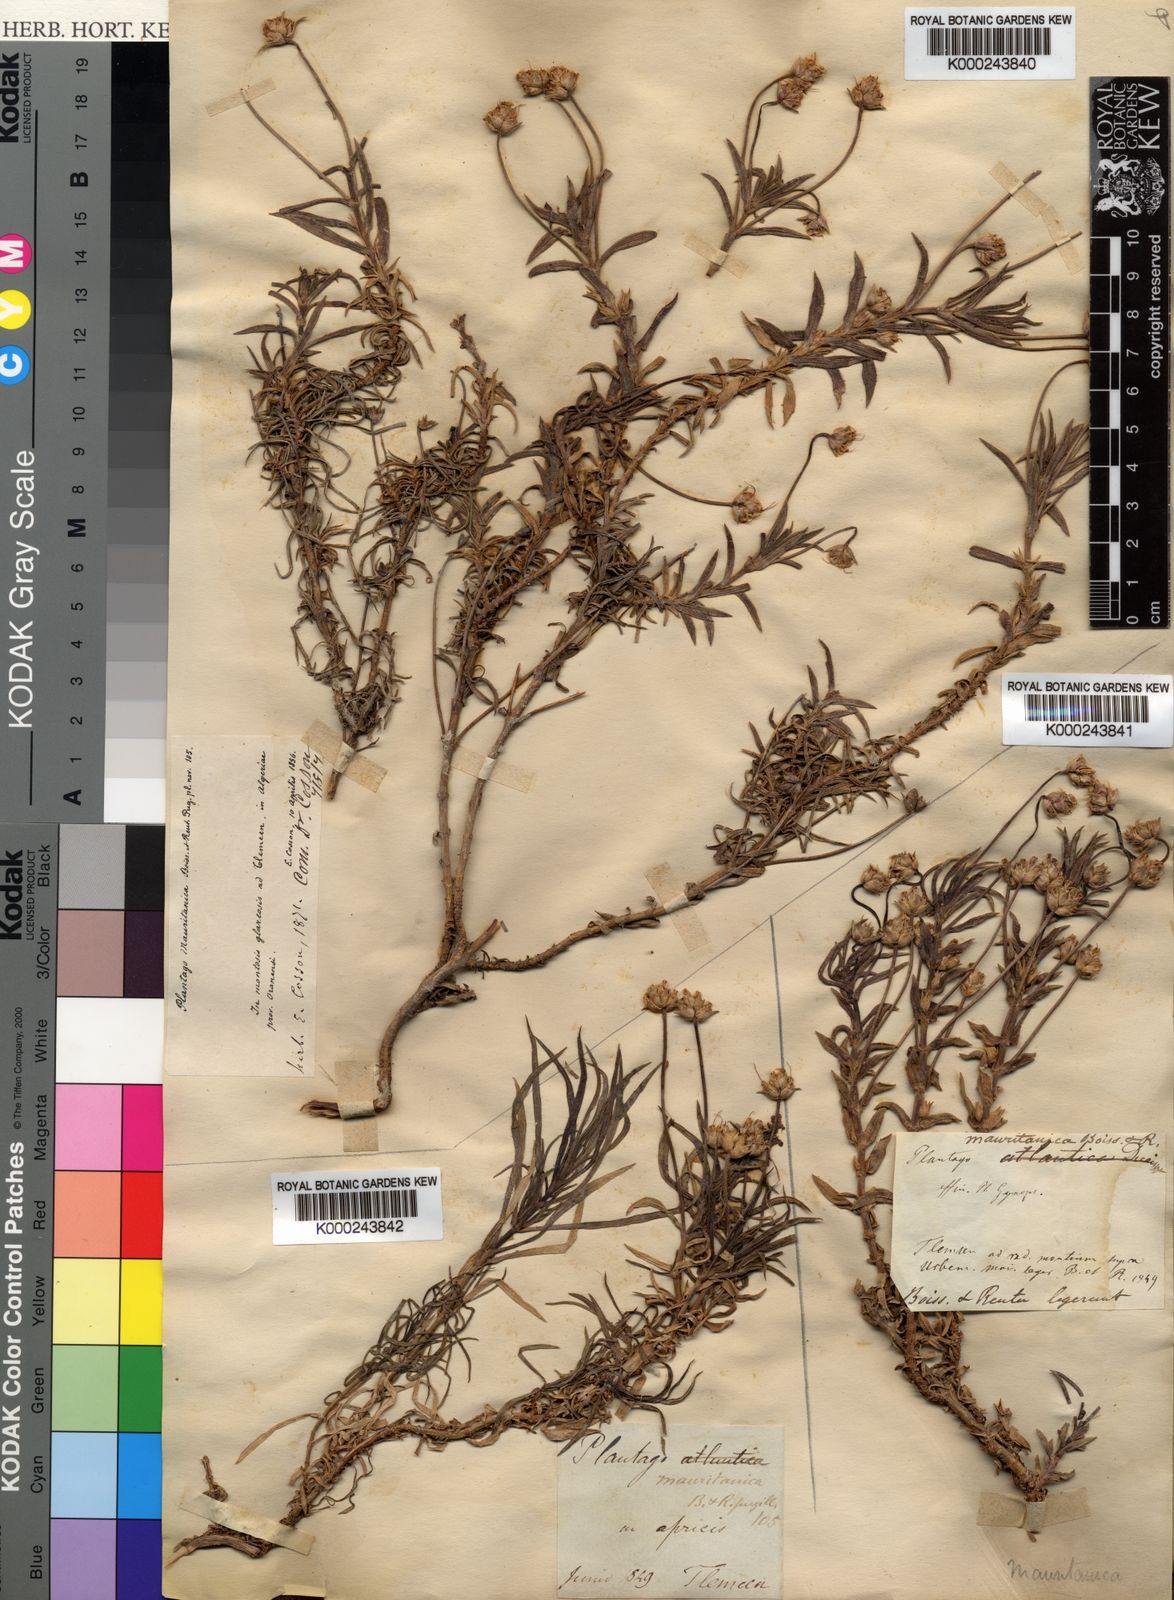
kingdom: Plantae
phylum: Tracheophyta
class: Magnoliopsida
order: Lamiales
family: Plantaginaceae
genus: Plantago
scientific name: Plantago mauritanica
